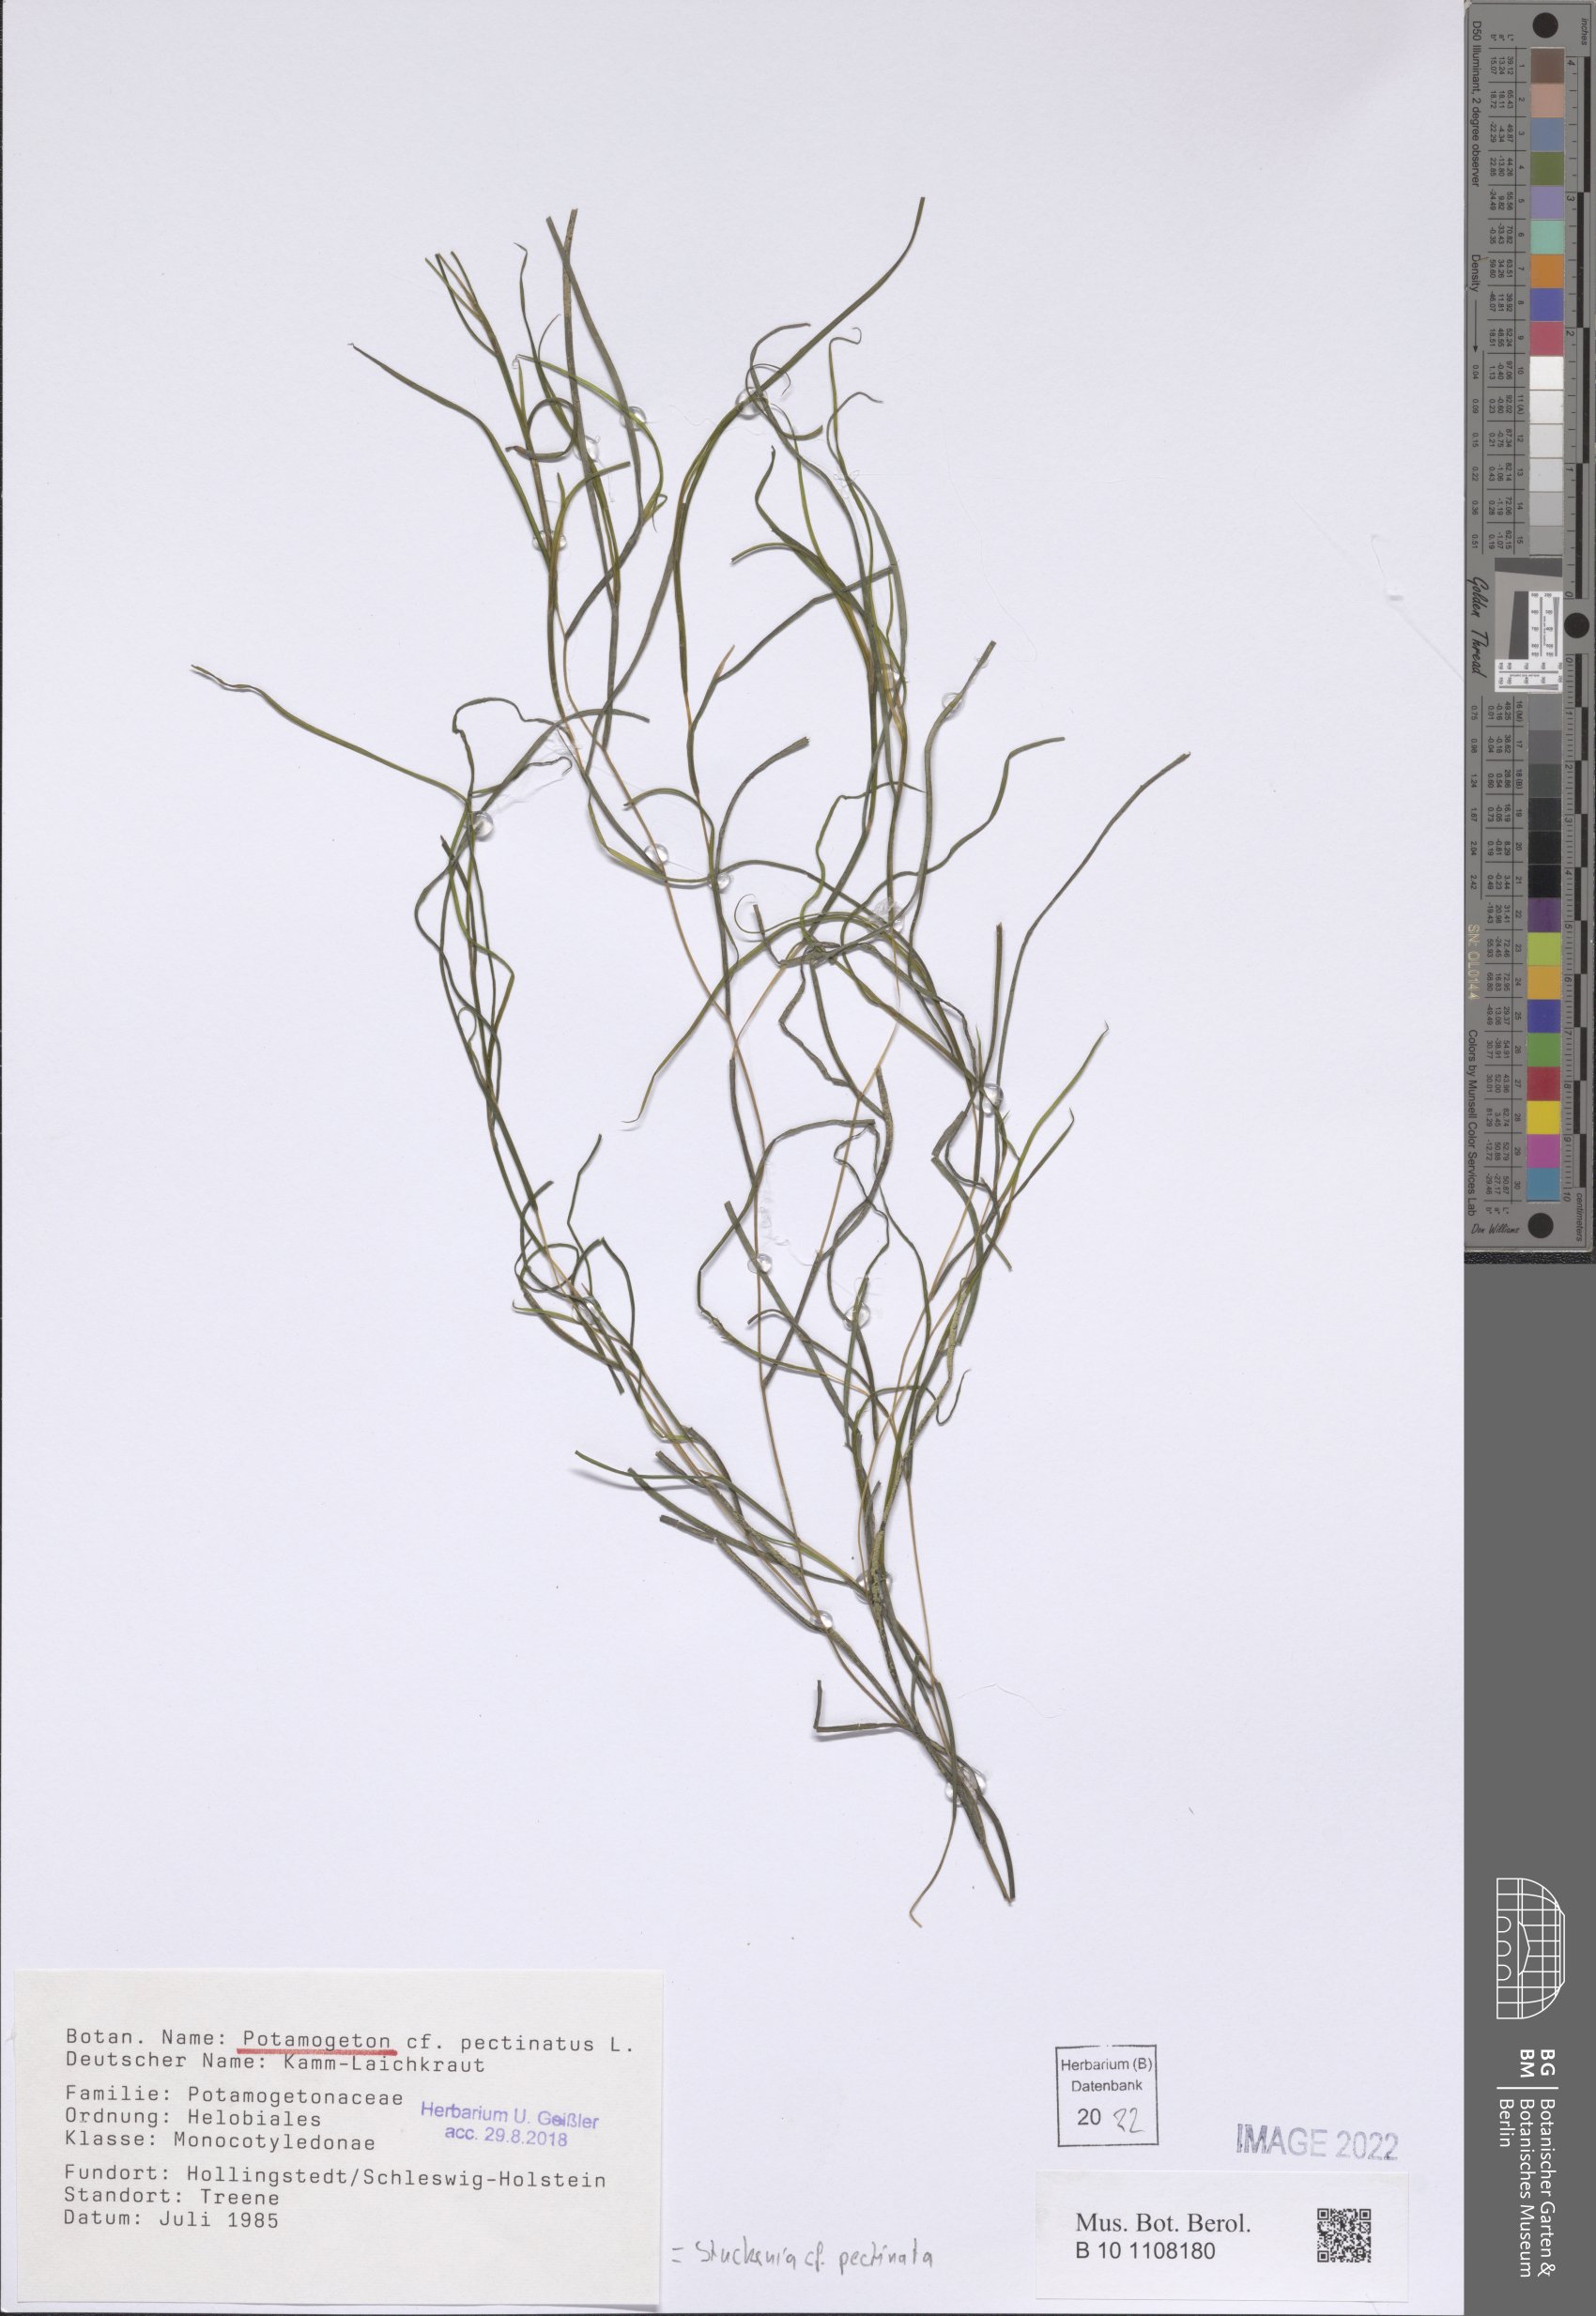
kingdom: Plantae
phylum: Tracheophyta
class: Liliopsida
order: Alismatales
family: Potamogetonaceae
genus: Stuckenia
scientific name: Stuckenia pectinata
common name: Sago pondweed
